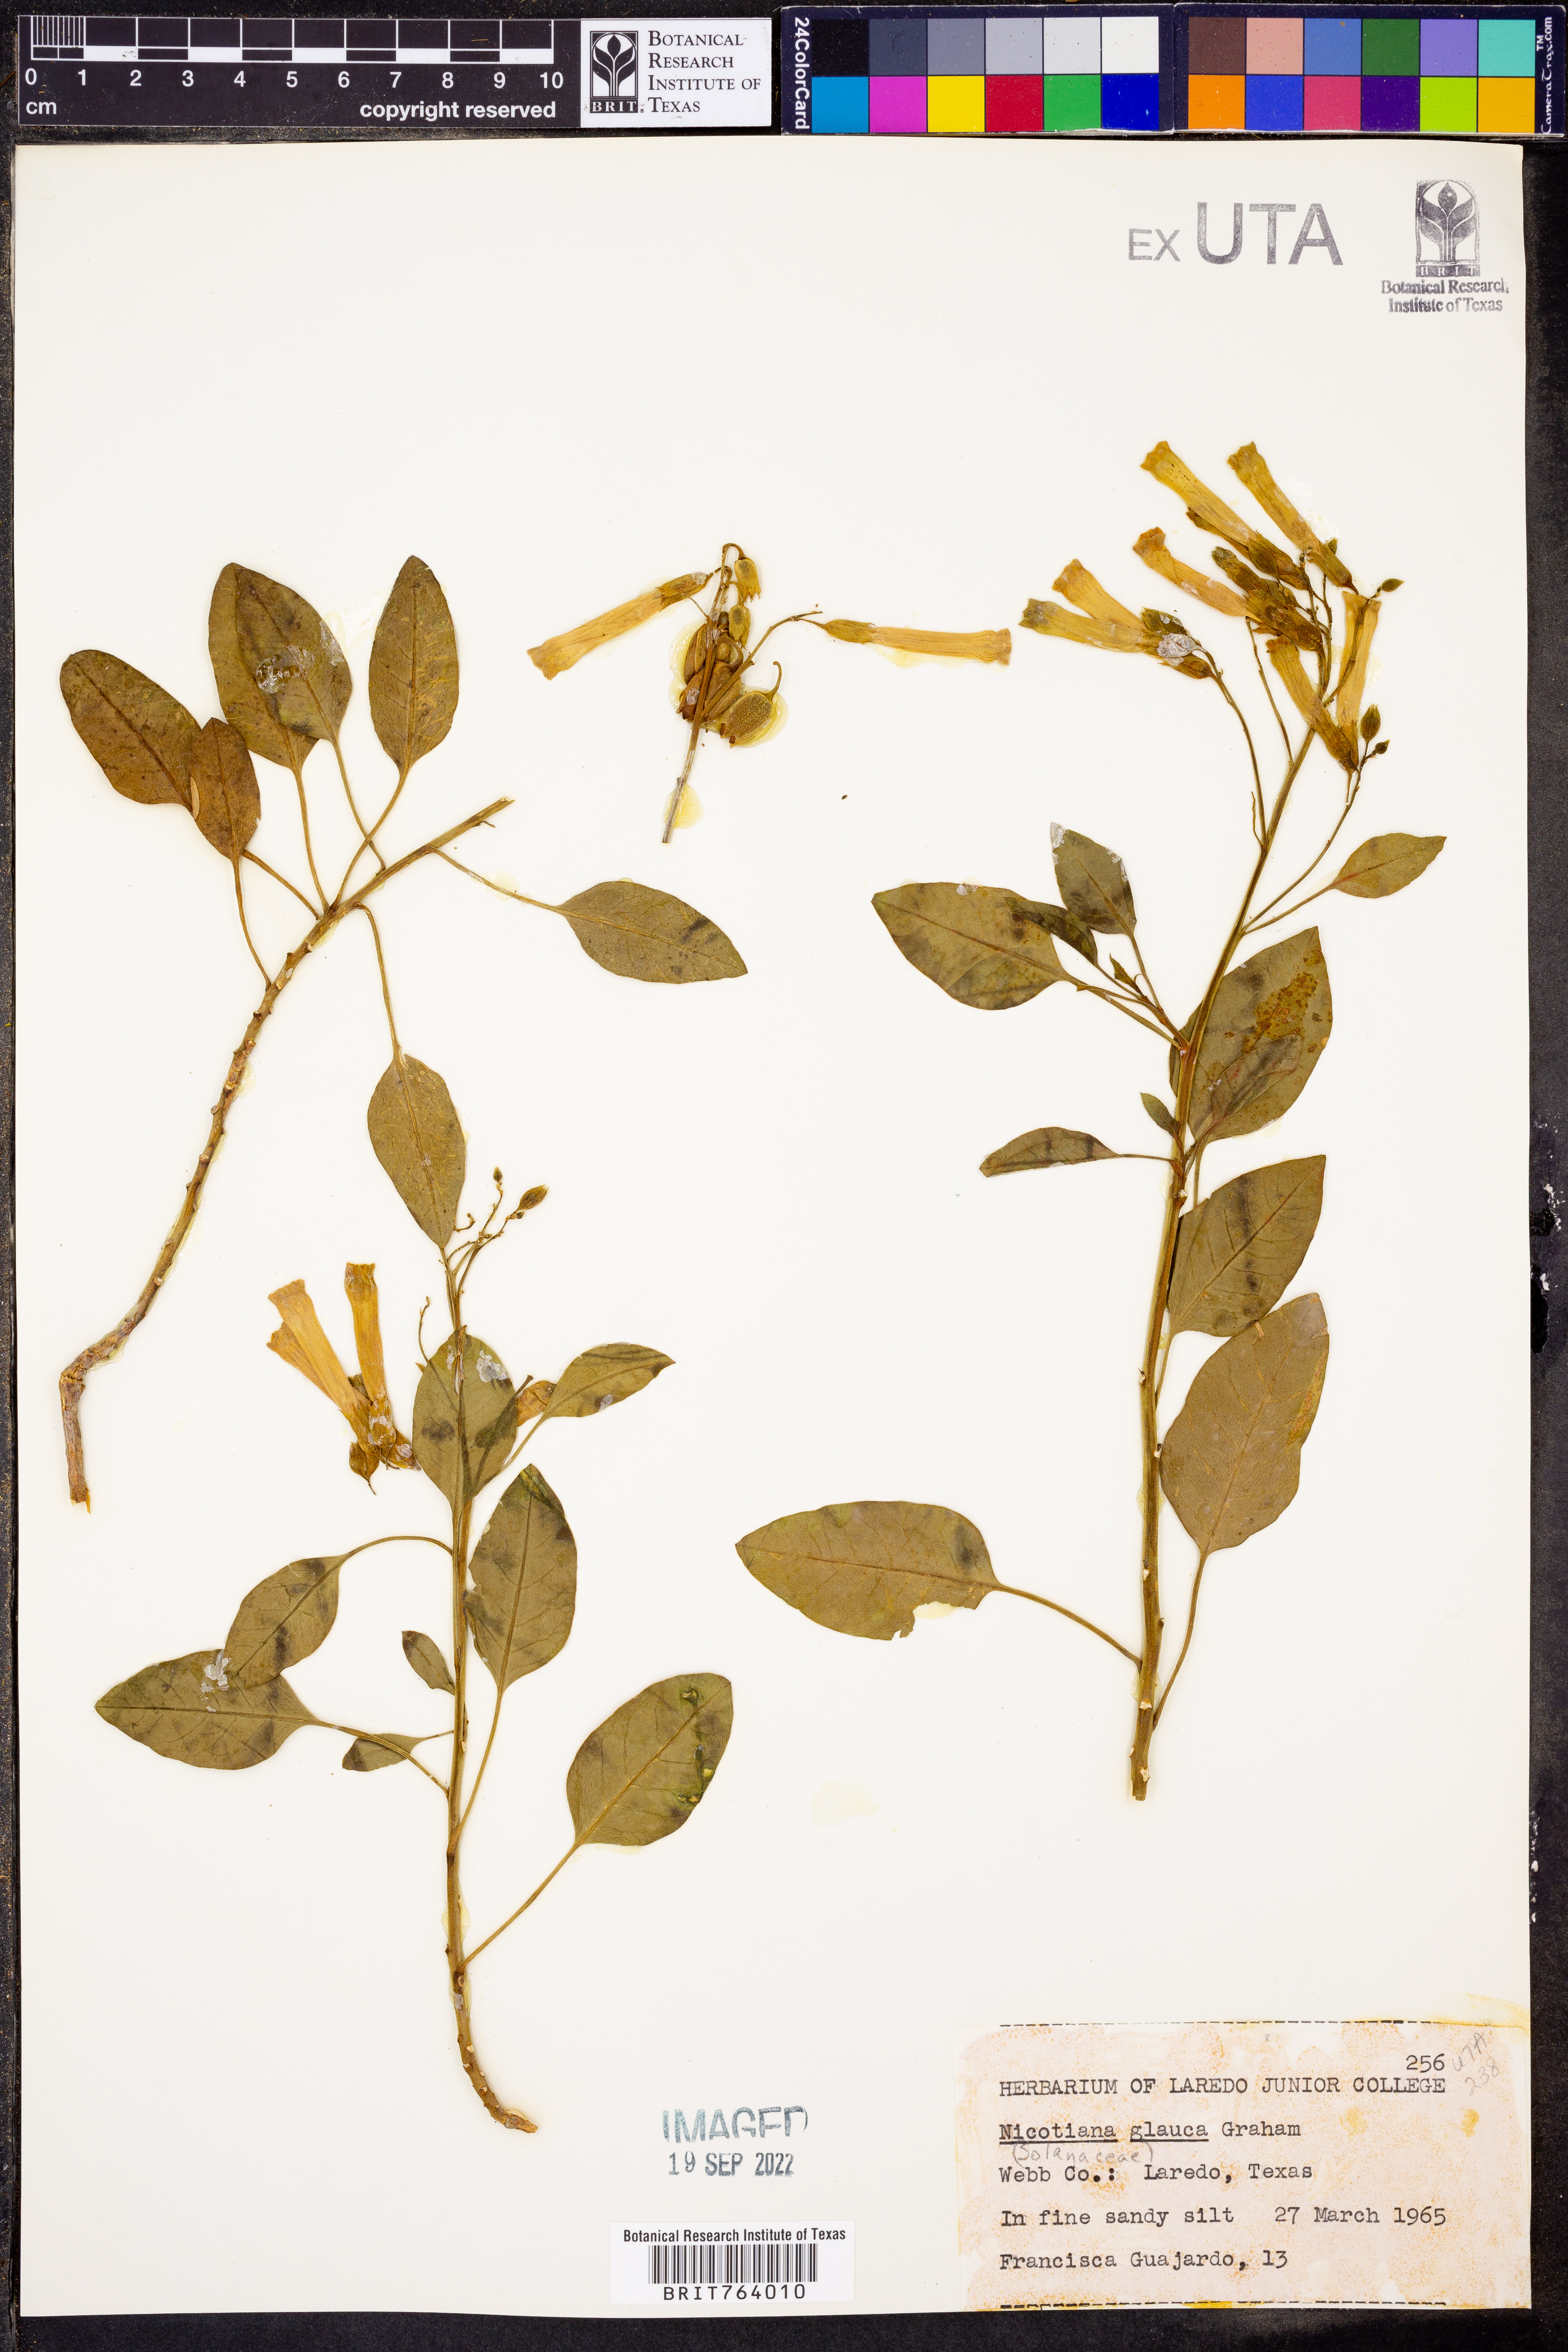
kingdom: Plantae
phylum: Tracheophyta
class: Magnoliopsida
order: Solanales
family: Solanaceae
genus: Nicotiana
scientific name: Nicotiana glauca
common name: Tree tobacco
